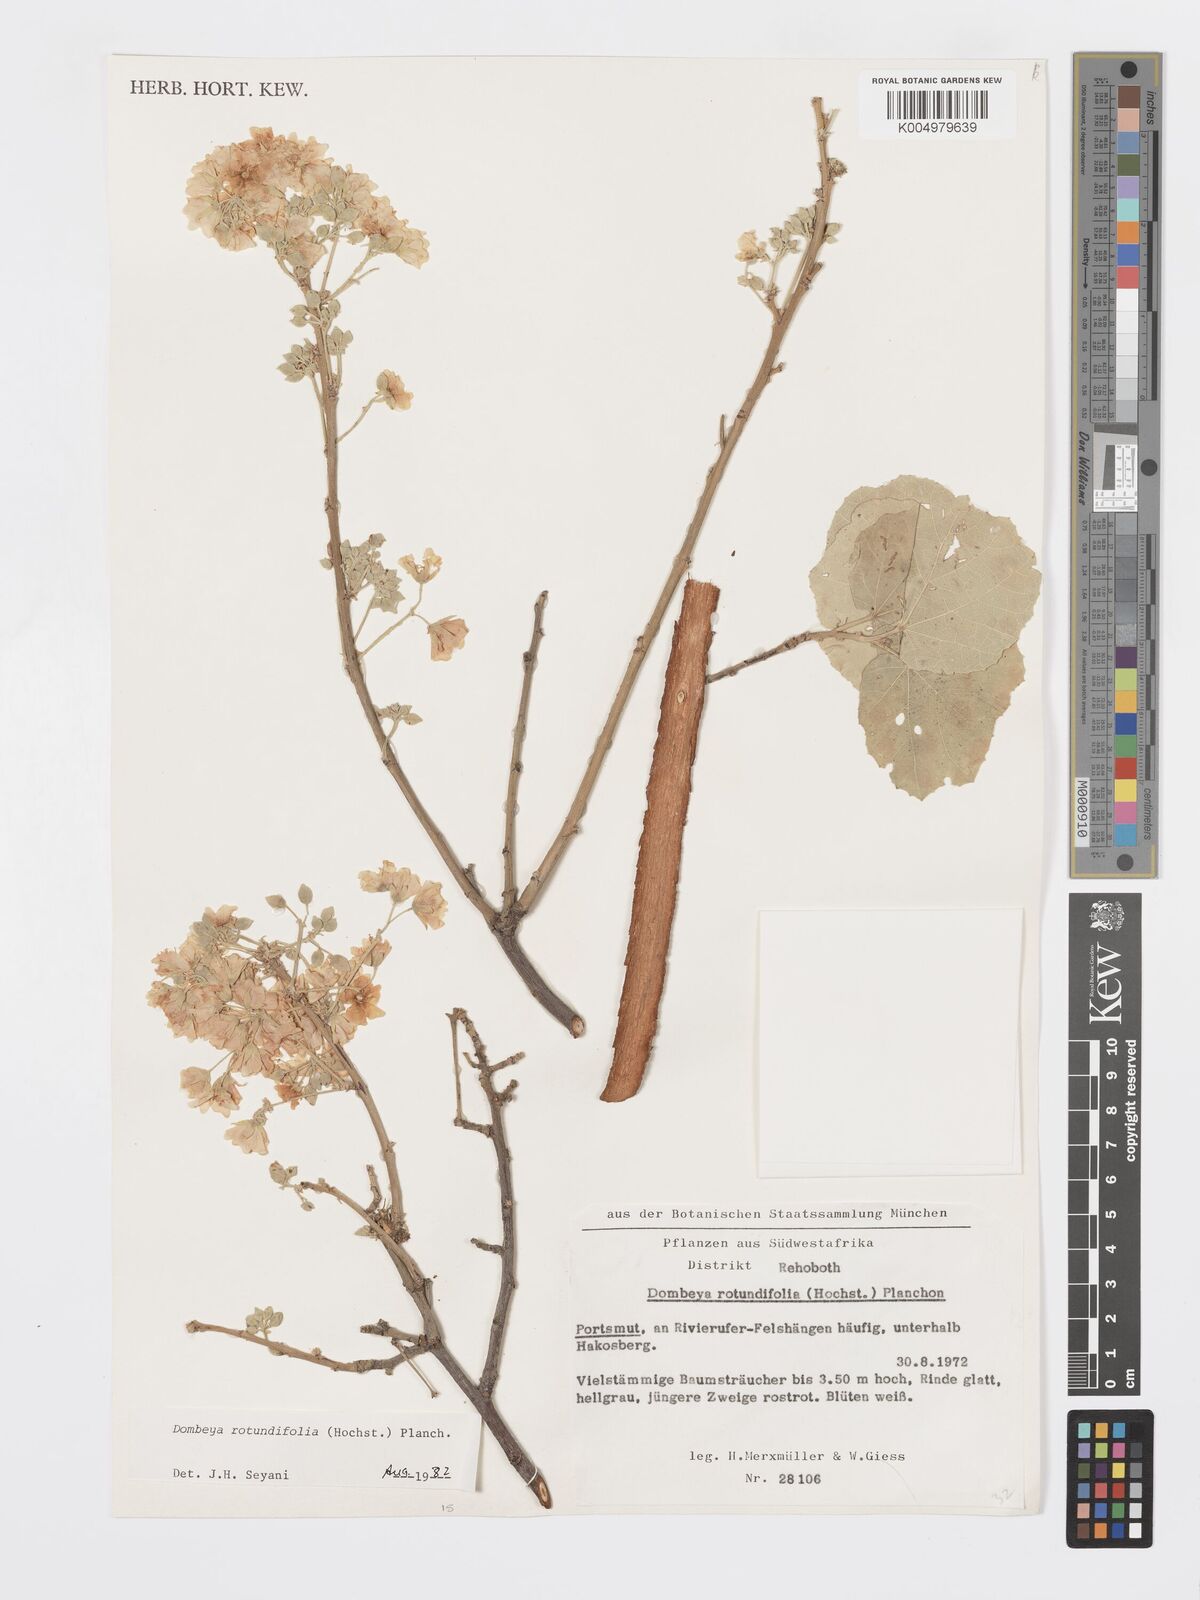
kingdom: Plantae
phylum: Tracheophyta
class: Magnoliopsida
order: Malvales
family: Malvaceae
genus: Dombeya
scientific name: Dombeya rotundifolia
